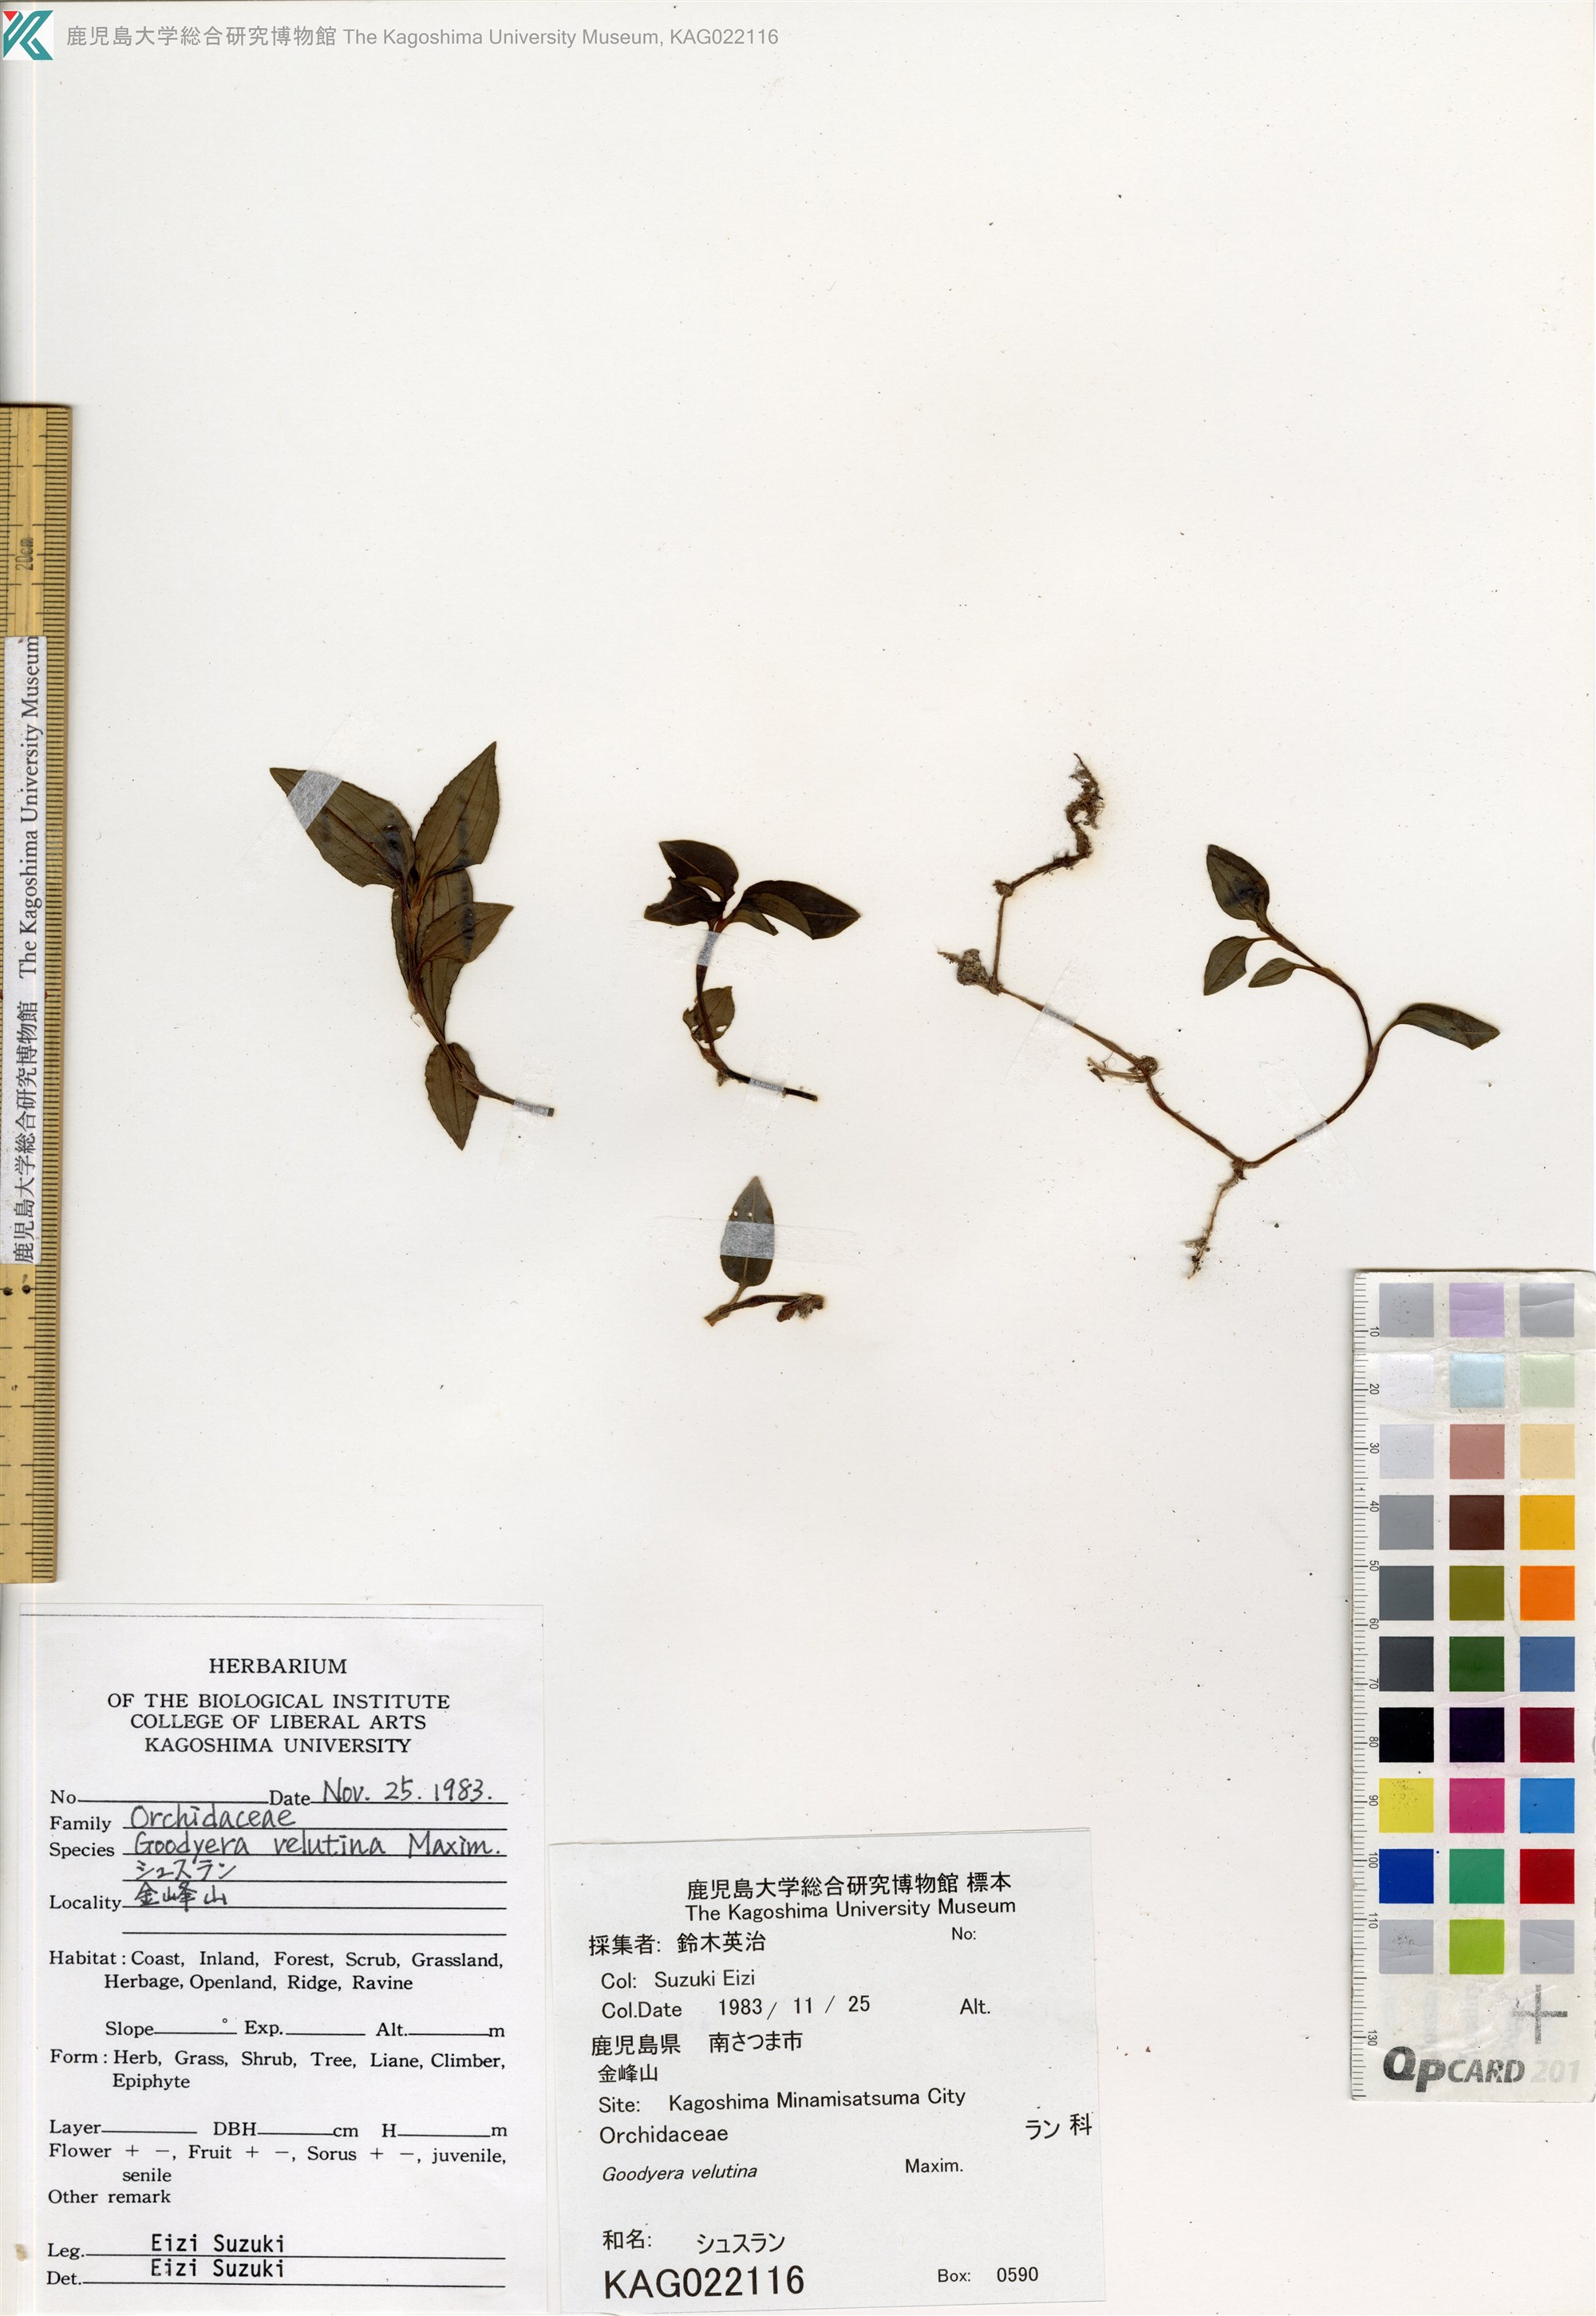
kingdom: Plantae
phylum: Tracheophyta
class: Liliopsida
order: Asparagales
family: Orchidaceae
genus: Goodyera
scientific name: Goodyera velutina
